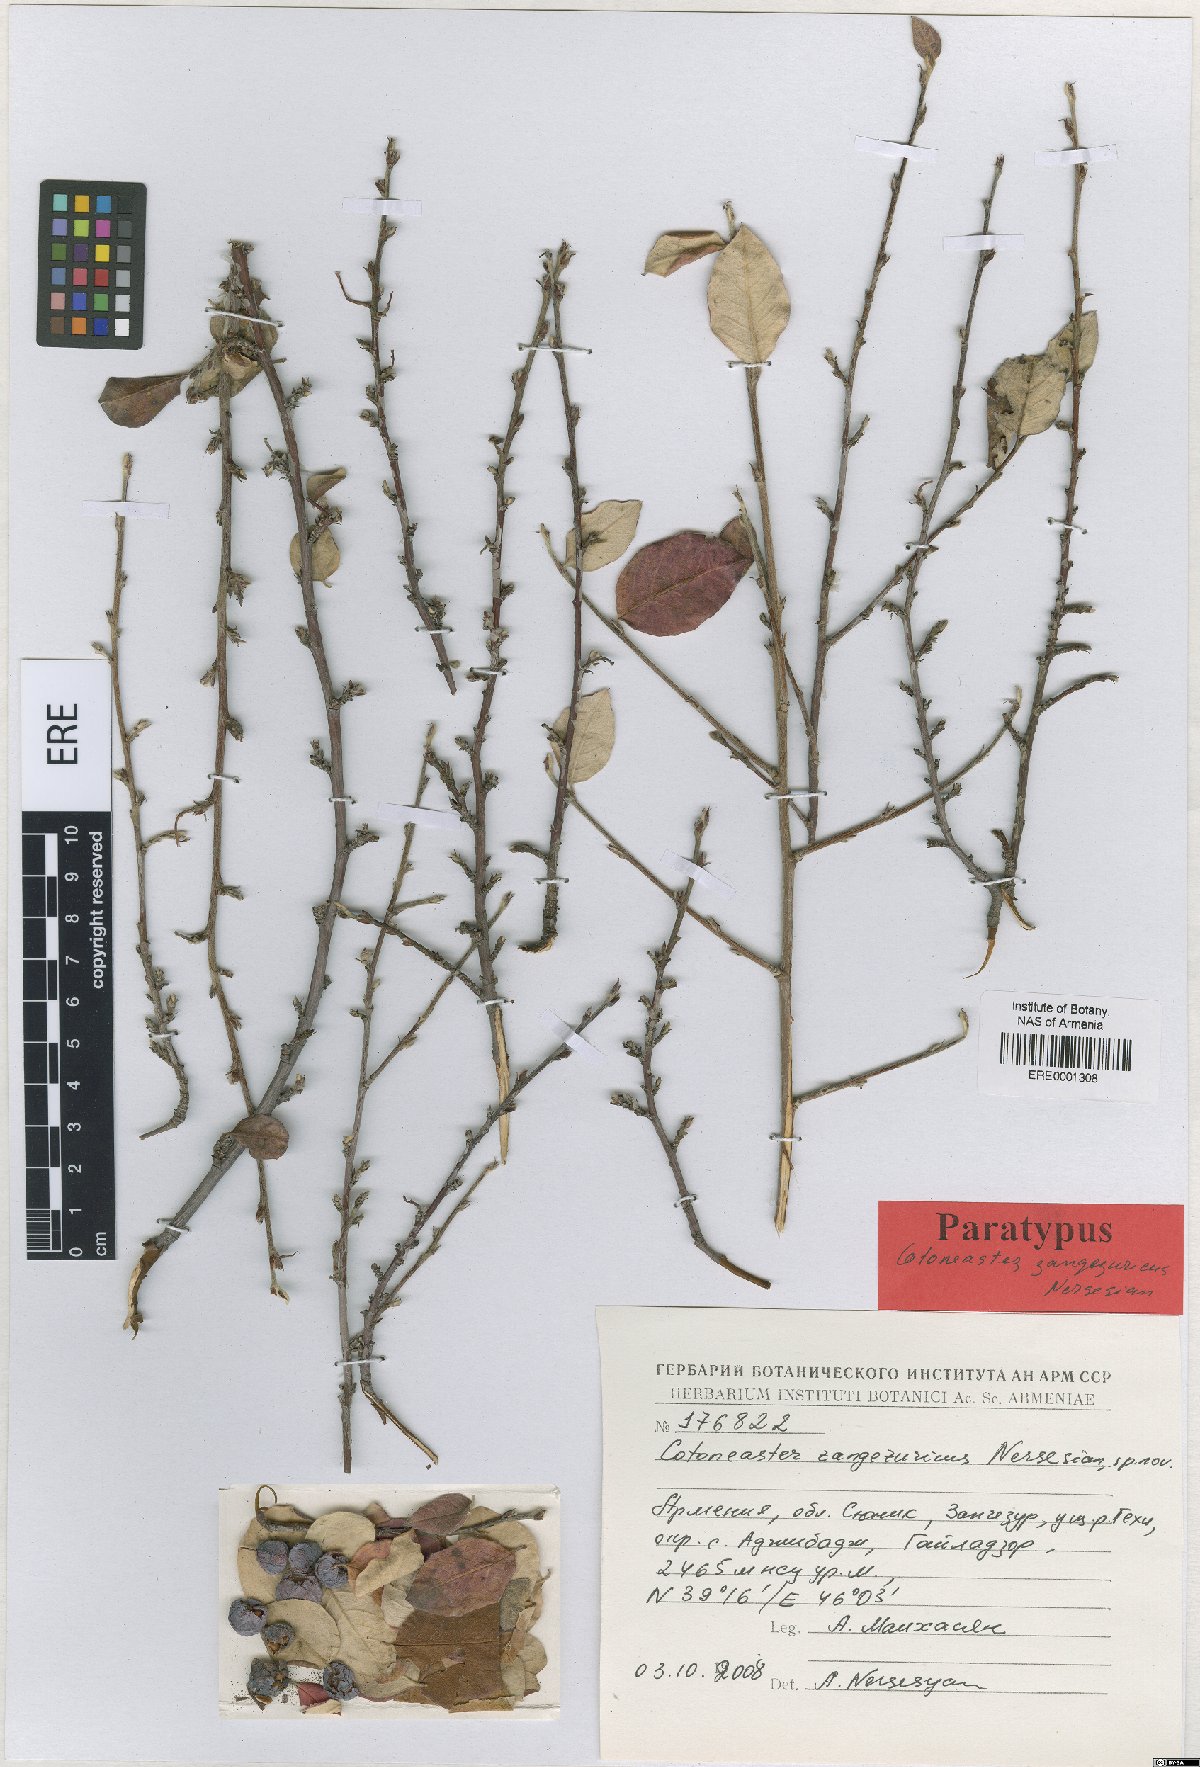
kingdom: Plantae
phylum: Tracheophyta
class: Magnoliopsida
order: Rosales
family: Rosaceae
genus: Cotoneaster
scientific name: Cotoneaster zangezuricus
